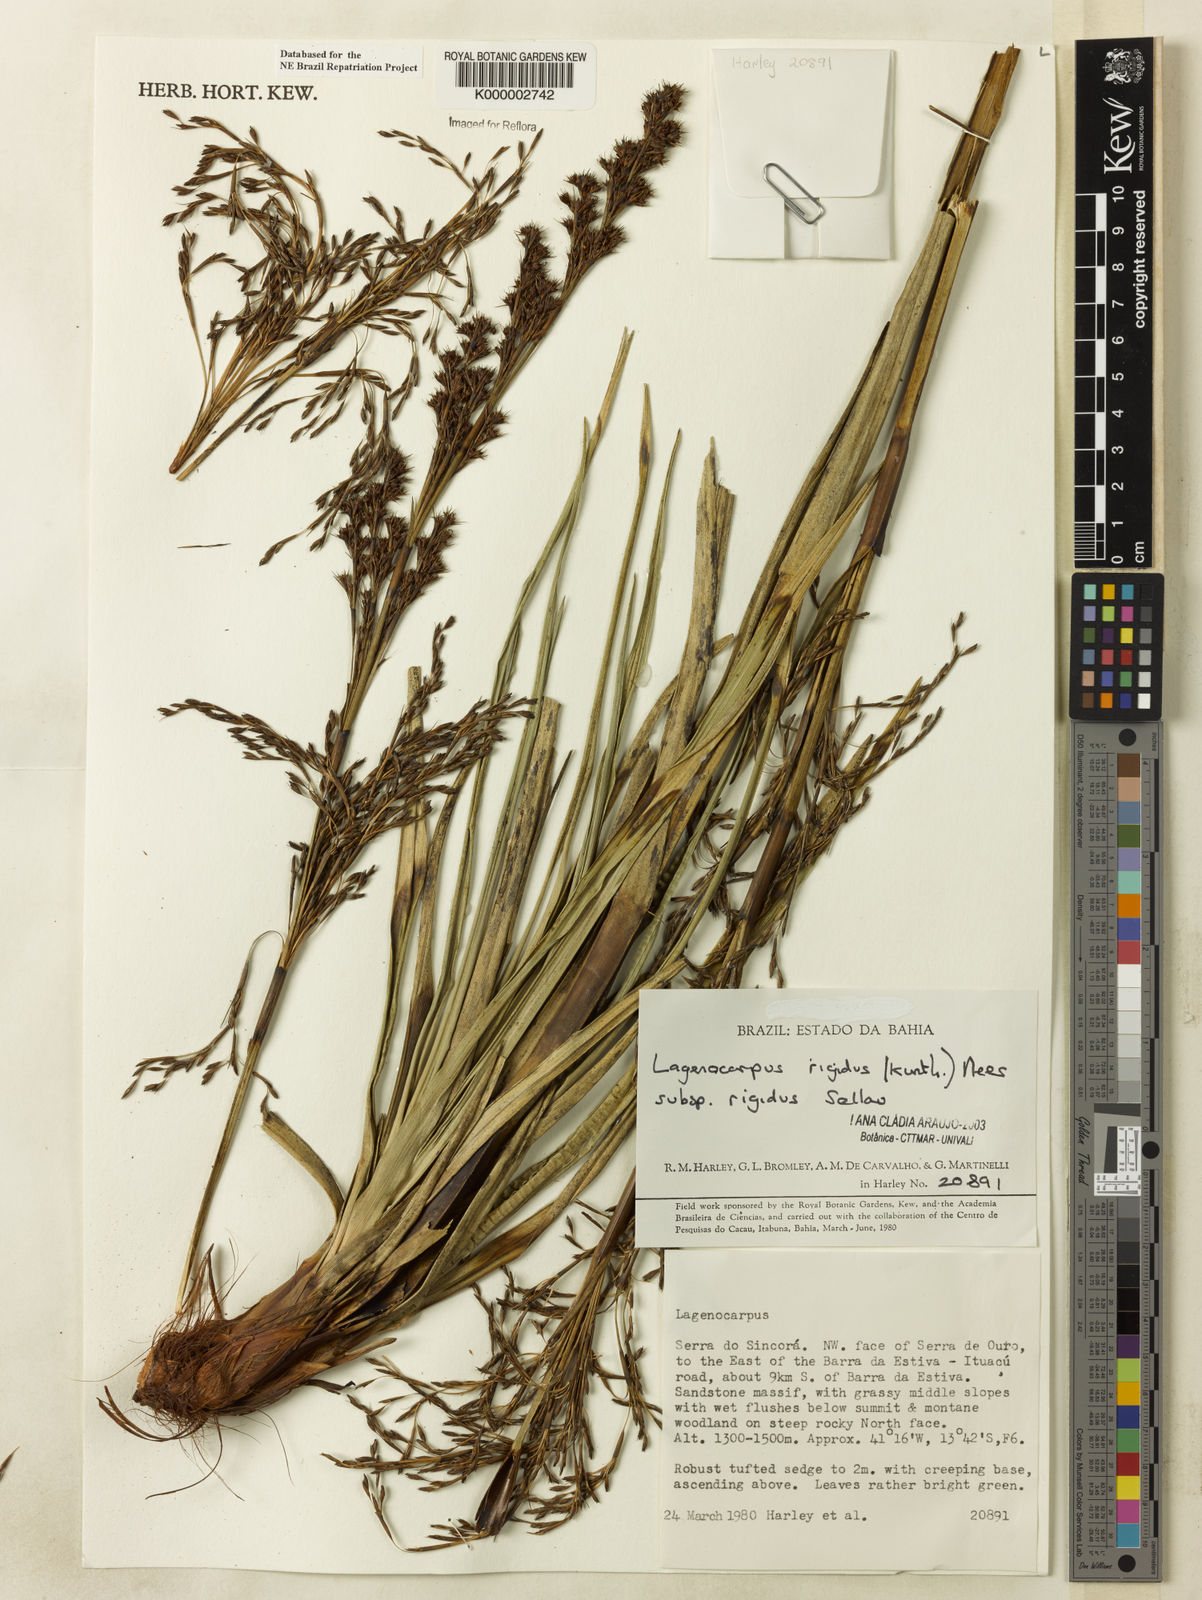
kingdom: Plantae
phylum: Tracheophyta
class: Liliopsida
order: Poales
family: Cyperaceae
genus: Lagenocarpus
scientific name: Lagenocarpus rigidus
